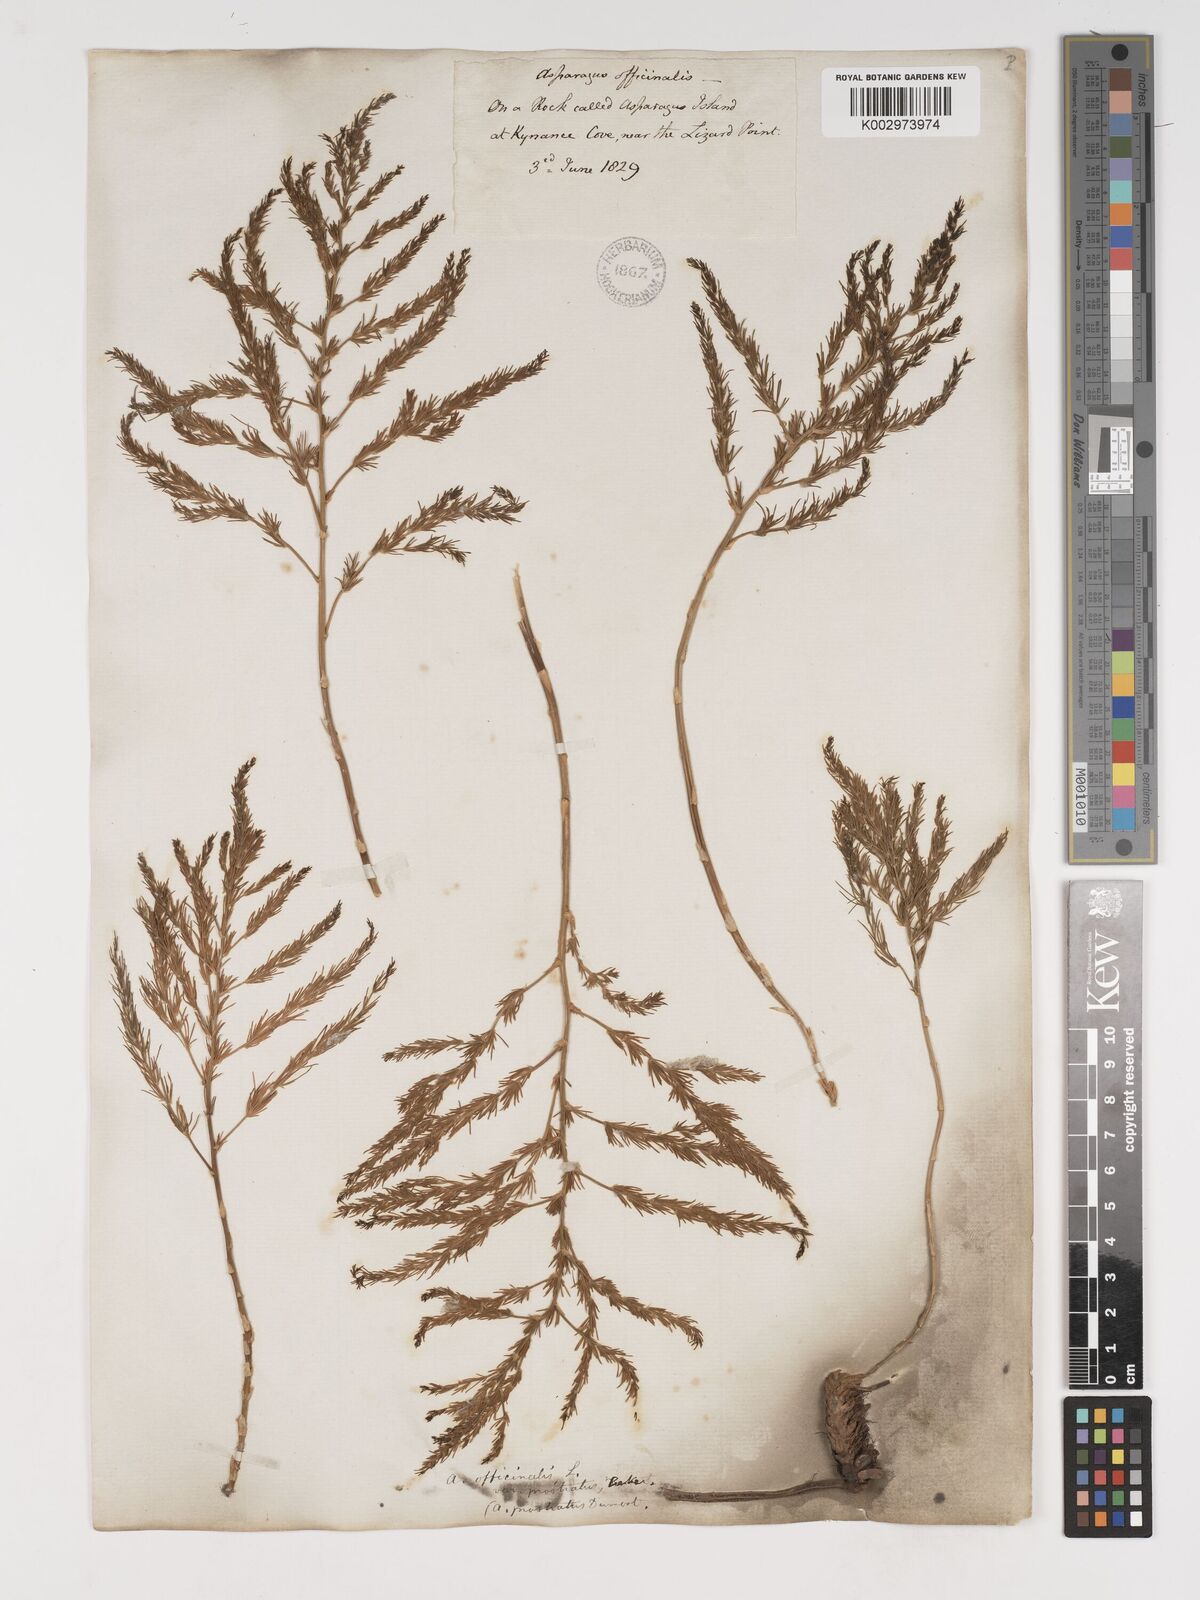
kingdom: Plantae
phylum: Tracheophyta
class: Liliopsida
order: Asparagales
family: Asparagaceae
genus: Asparagus
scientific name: Asparagus maritimus
